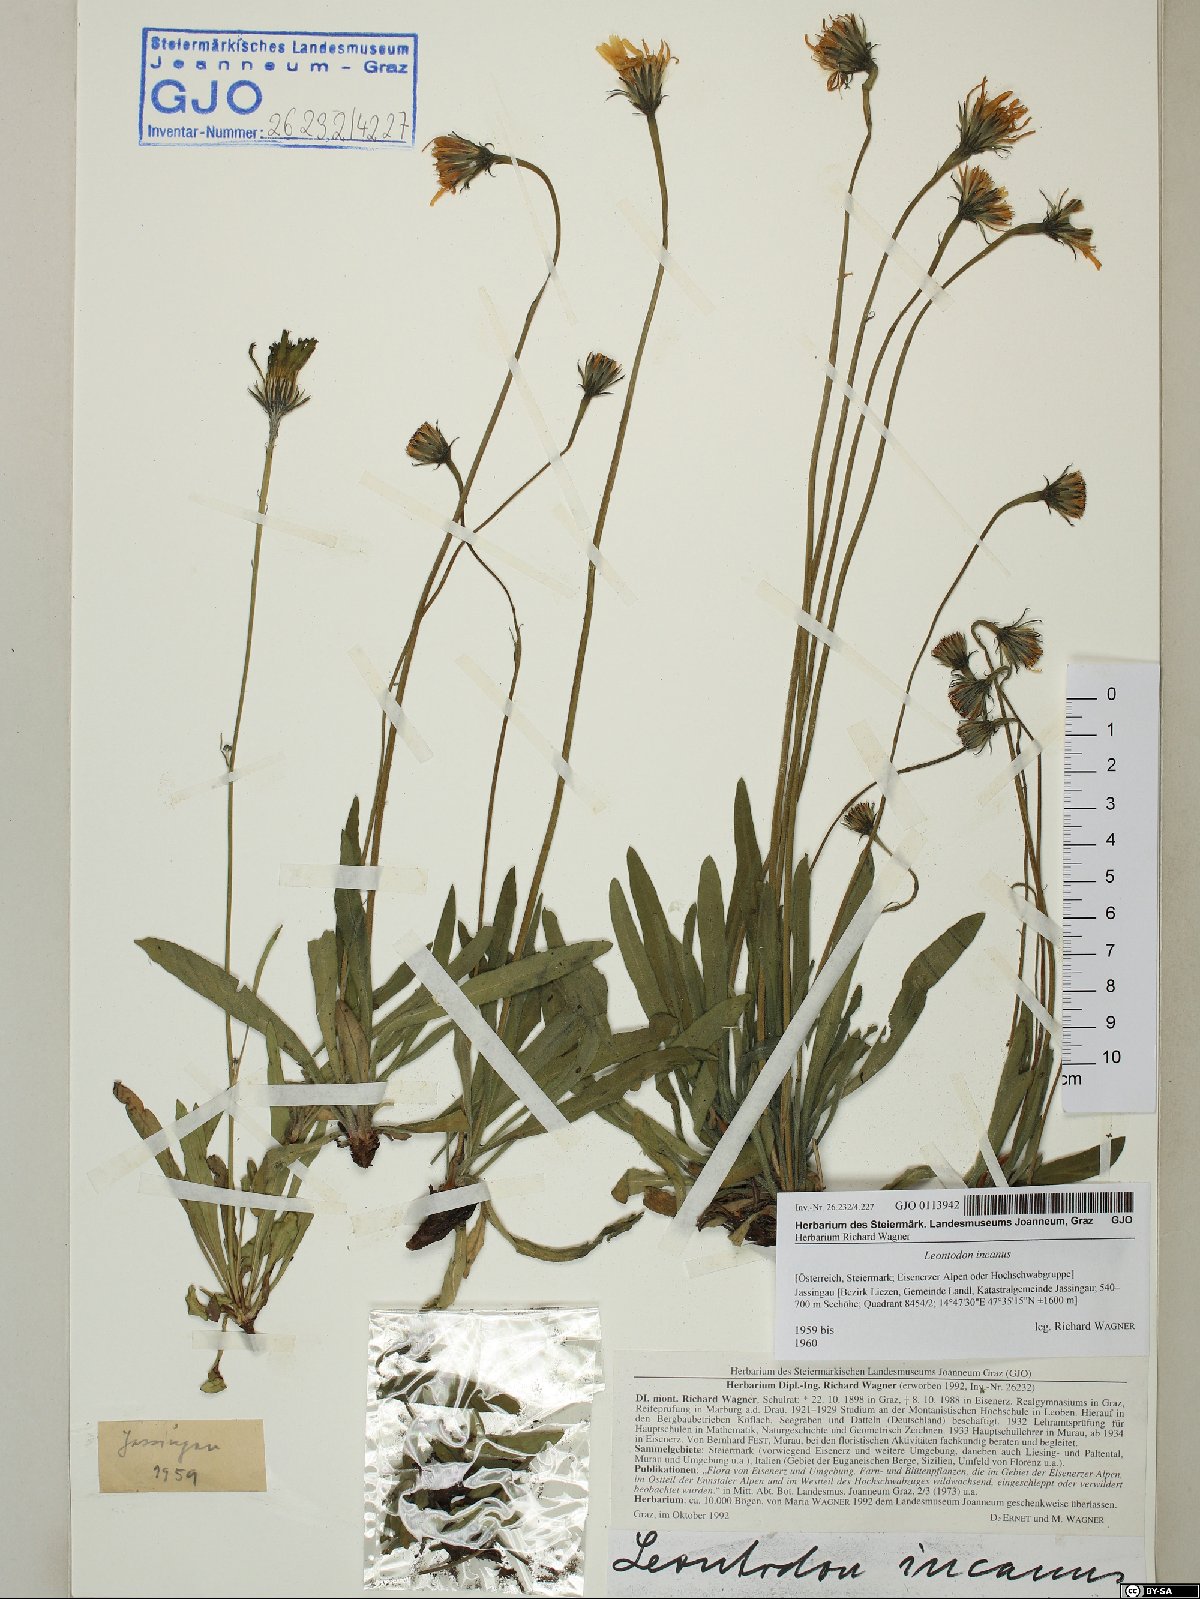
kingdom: Plantae
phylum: Tracheophyta
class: Magnoliopsida
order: Asterales
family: Asteraceae
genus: Leontodon
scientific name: Leontodon incanus
